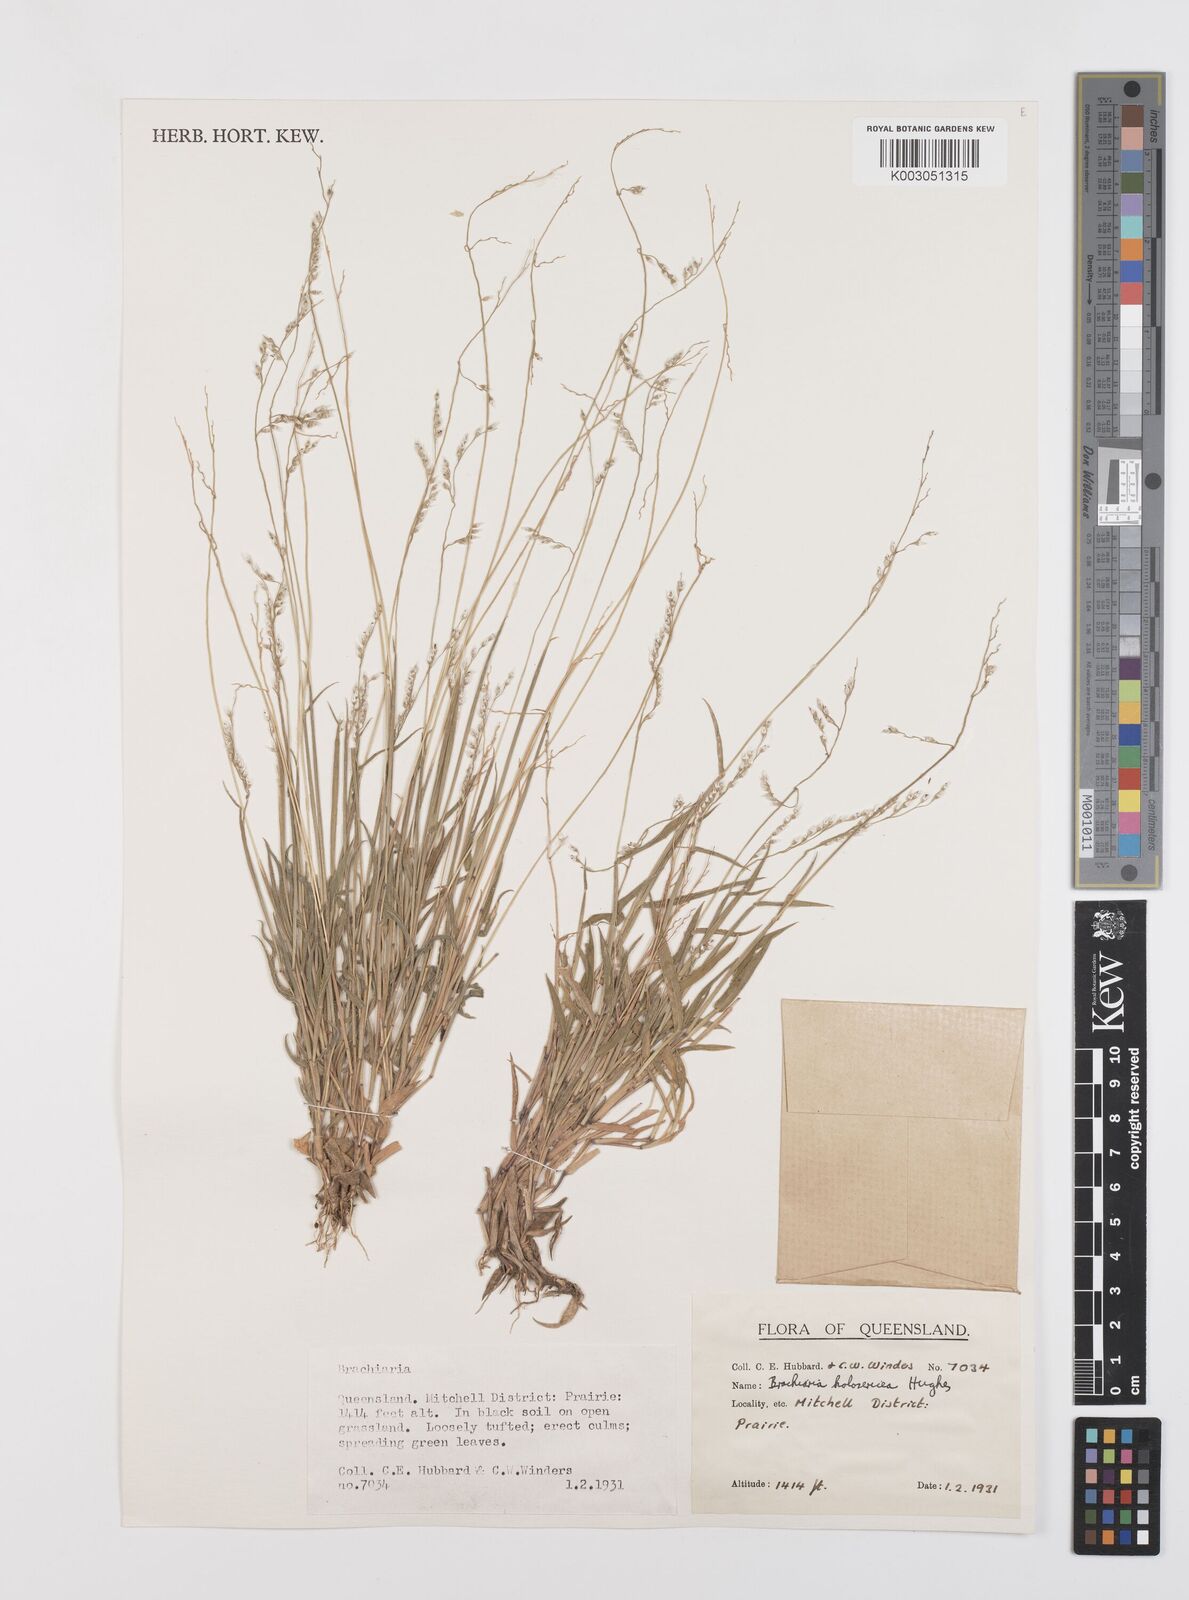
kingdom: Plantae
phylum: Tracheophyta
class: Liliopsida
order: Poales
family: Poaceae
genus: Urochloa
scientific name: Urochloa holosericea
